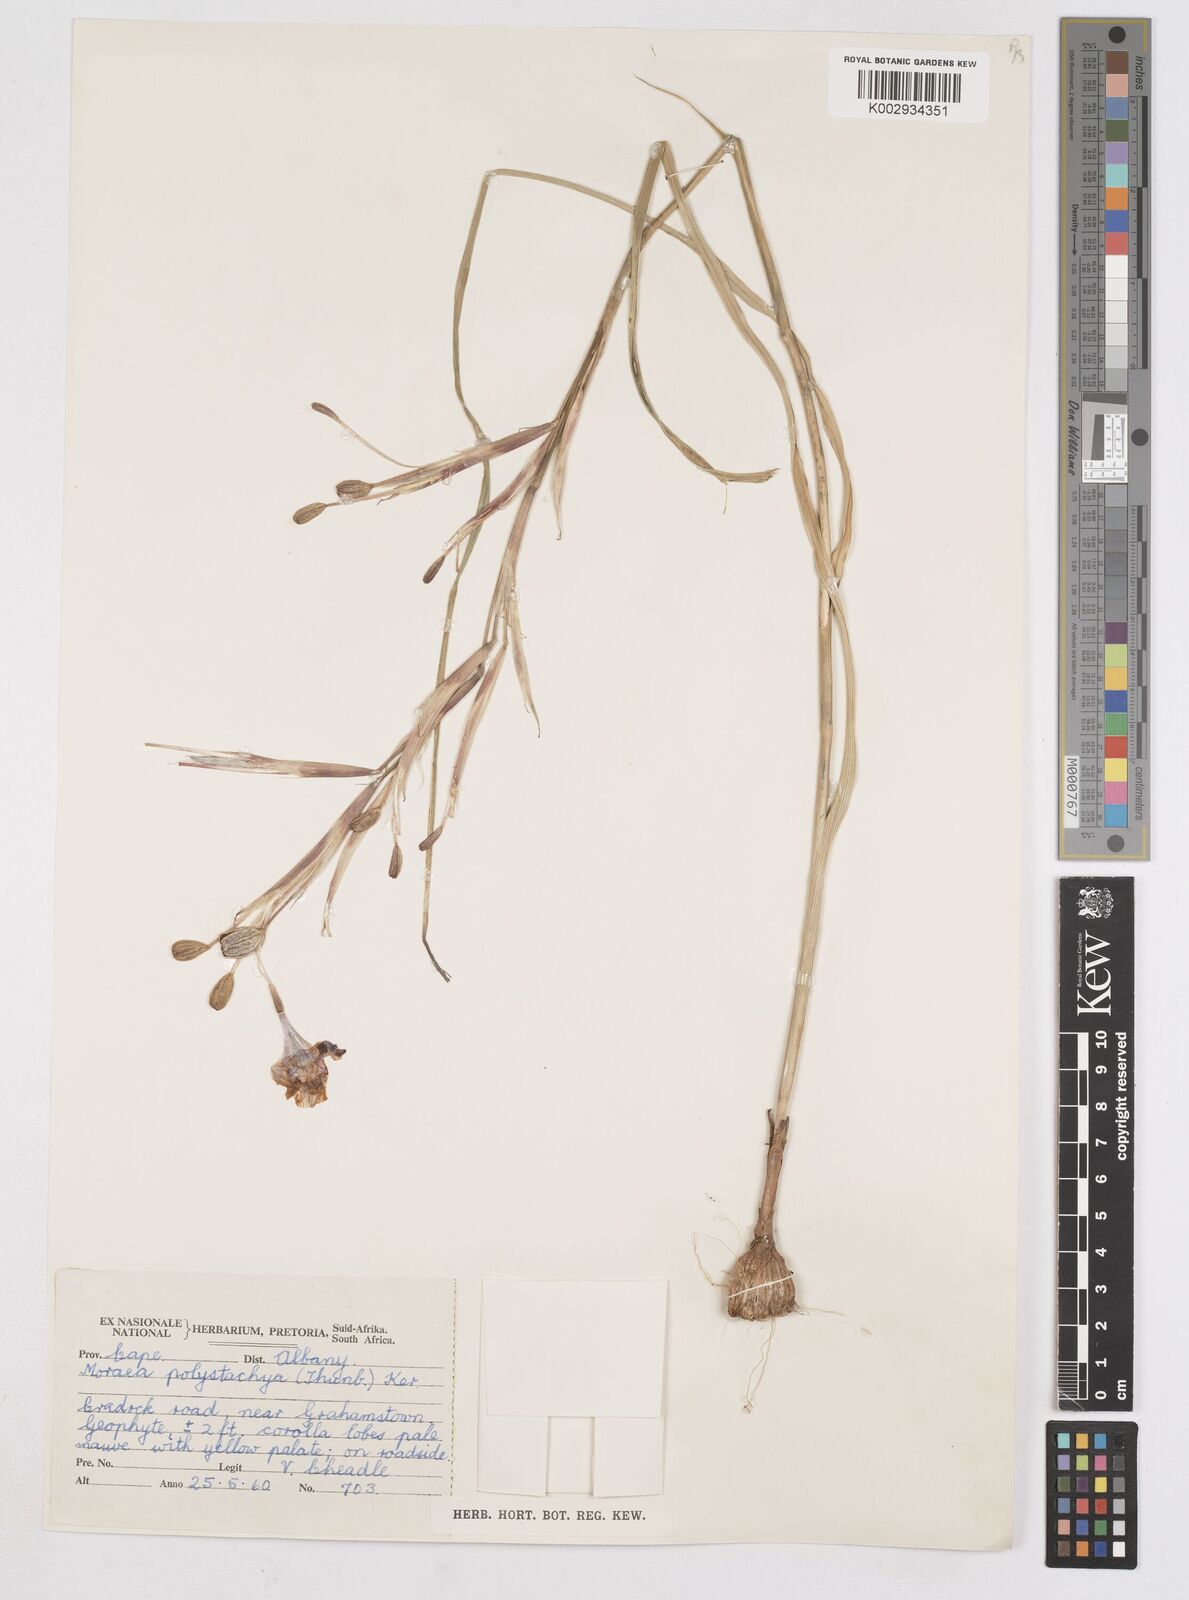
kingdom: Plantae
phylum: Tracheophyta
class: Liliopsida
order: Asparagales
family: Iridaceae
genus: Moraea
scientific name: Moraea polystachya
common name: Blue-tulip
